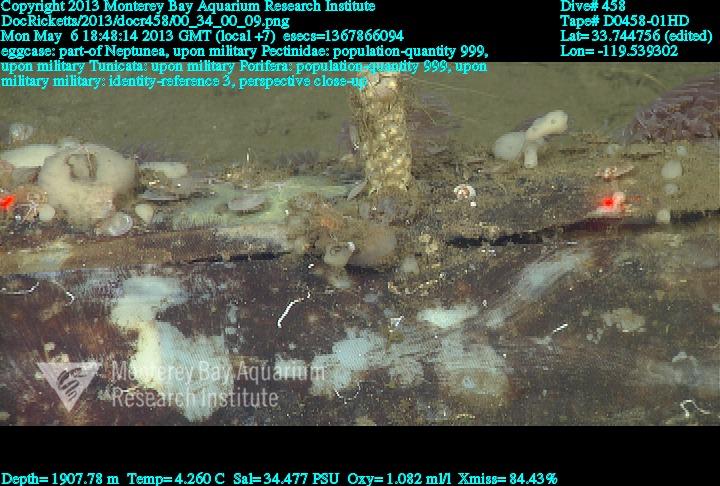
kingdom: Animalia
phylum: Porifera
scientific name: Porifera
